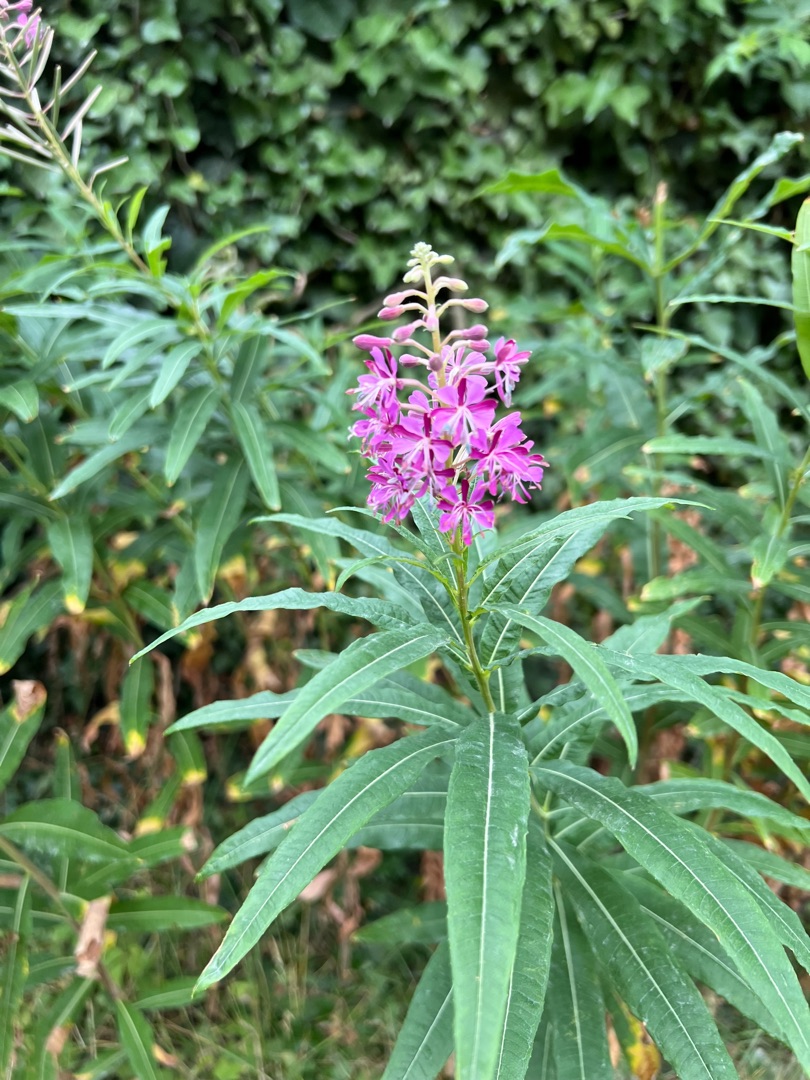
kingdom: Plantae
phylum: Tracheophyta
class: Magnoliopsida
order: Myrtales
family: Onagraceae
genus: Chamaenerion
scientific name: Chamaenerion angustifolium
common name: Gederams
